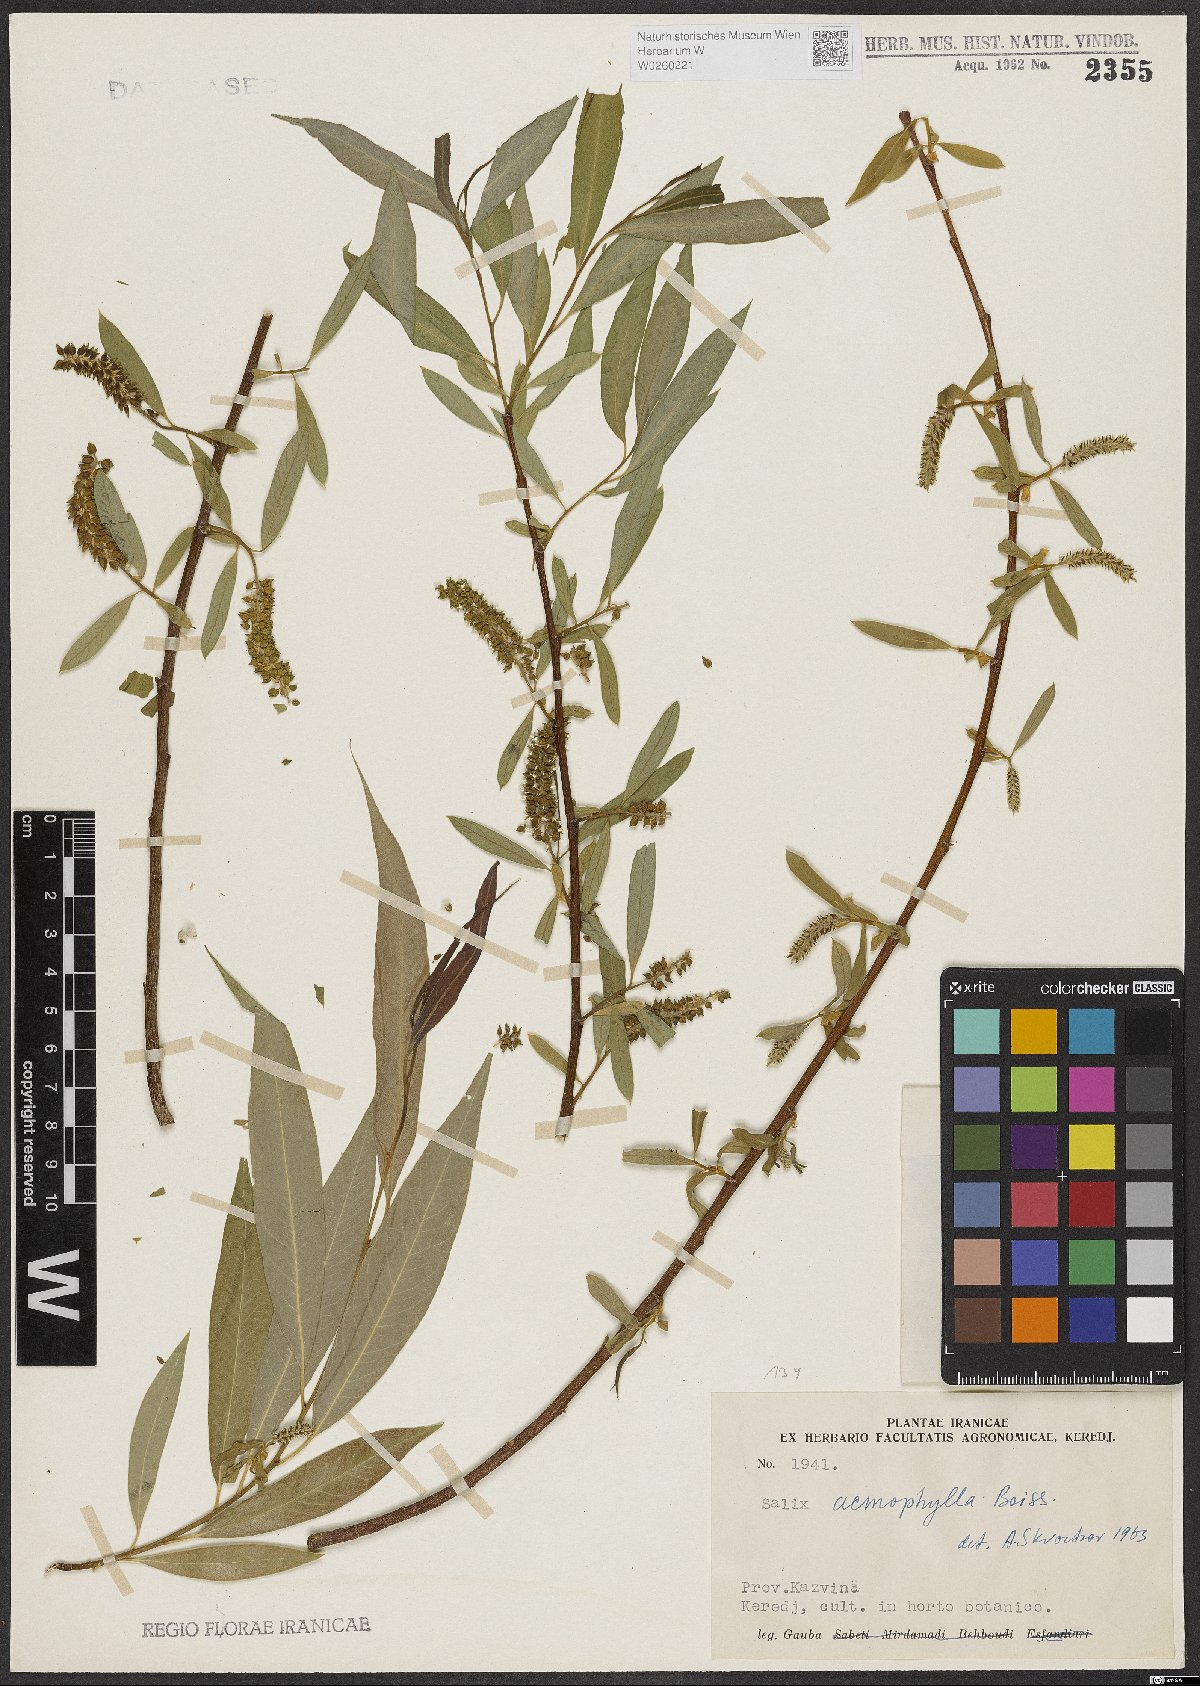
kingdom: Plantae
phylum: Tracheophyta
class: Magnoliopsida
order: Malpighiales
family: Salicaceae
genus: Salix
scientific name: Salix acmophylla
